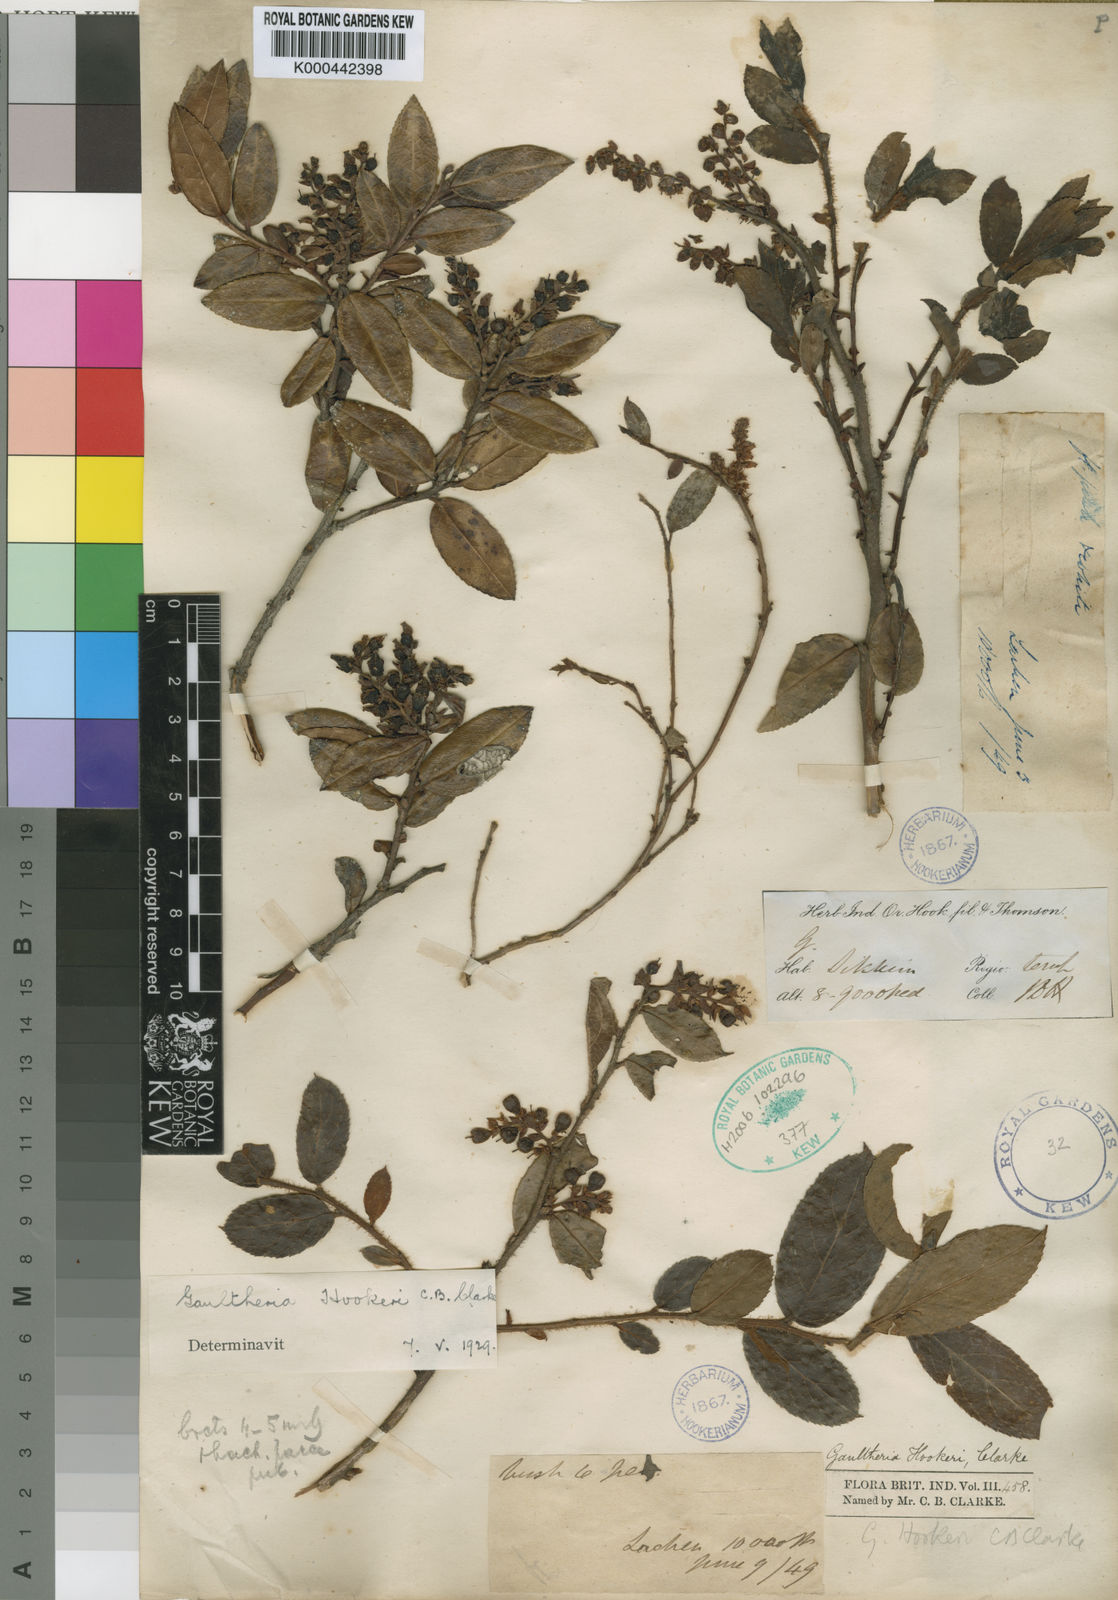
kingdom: Plantae
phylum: Tracheophyta
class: Magnoliopsida
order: Ericales
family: Ericaceae
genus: Gaultheria
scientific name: Gaultheria hookeri
